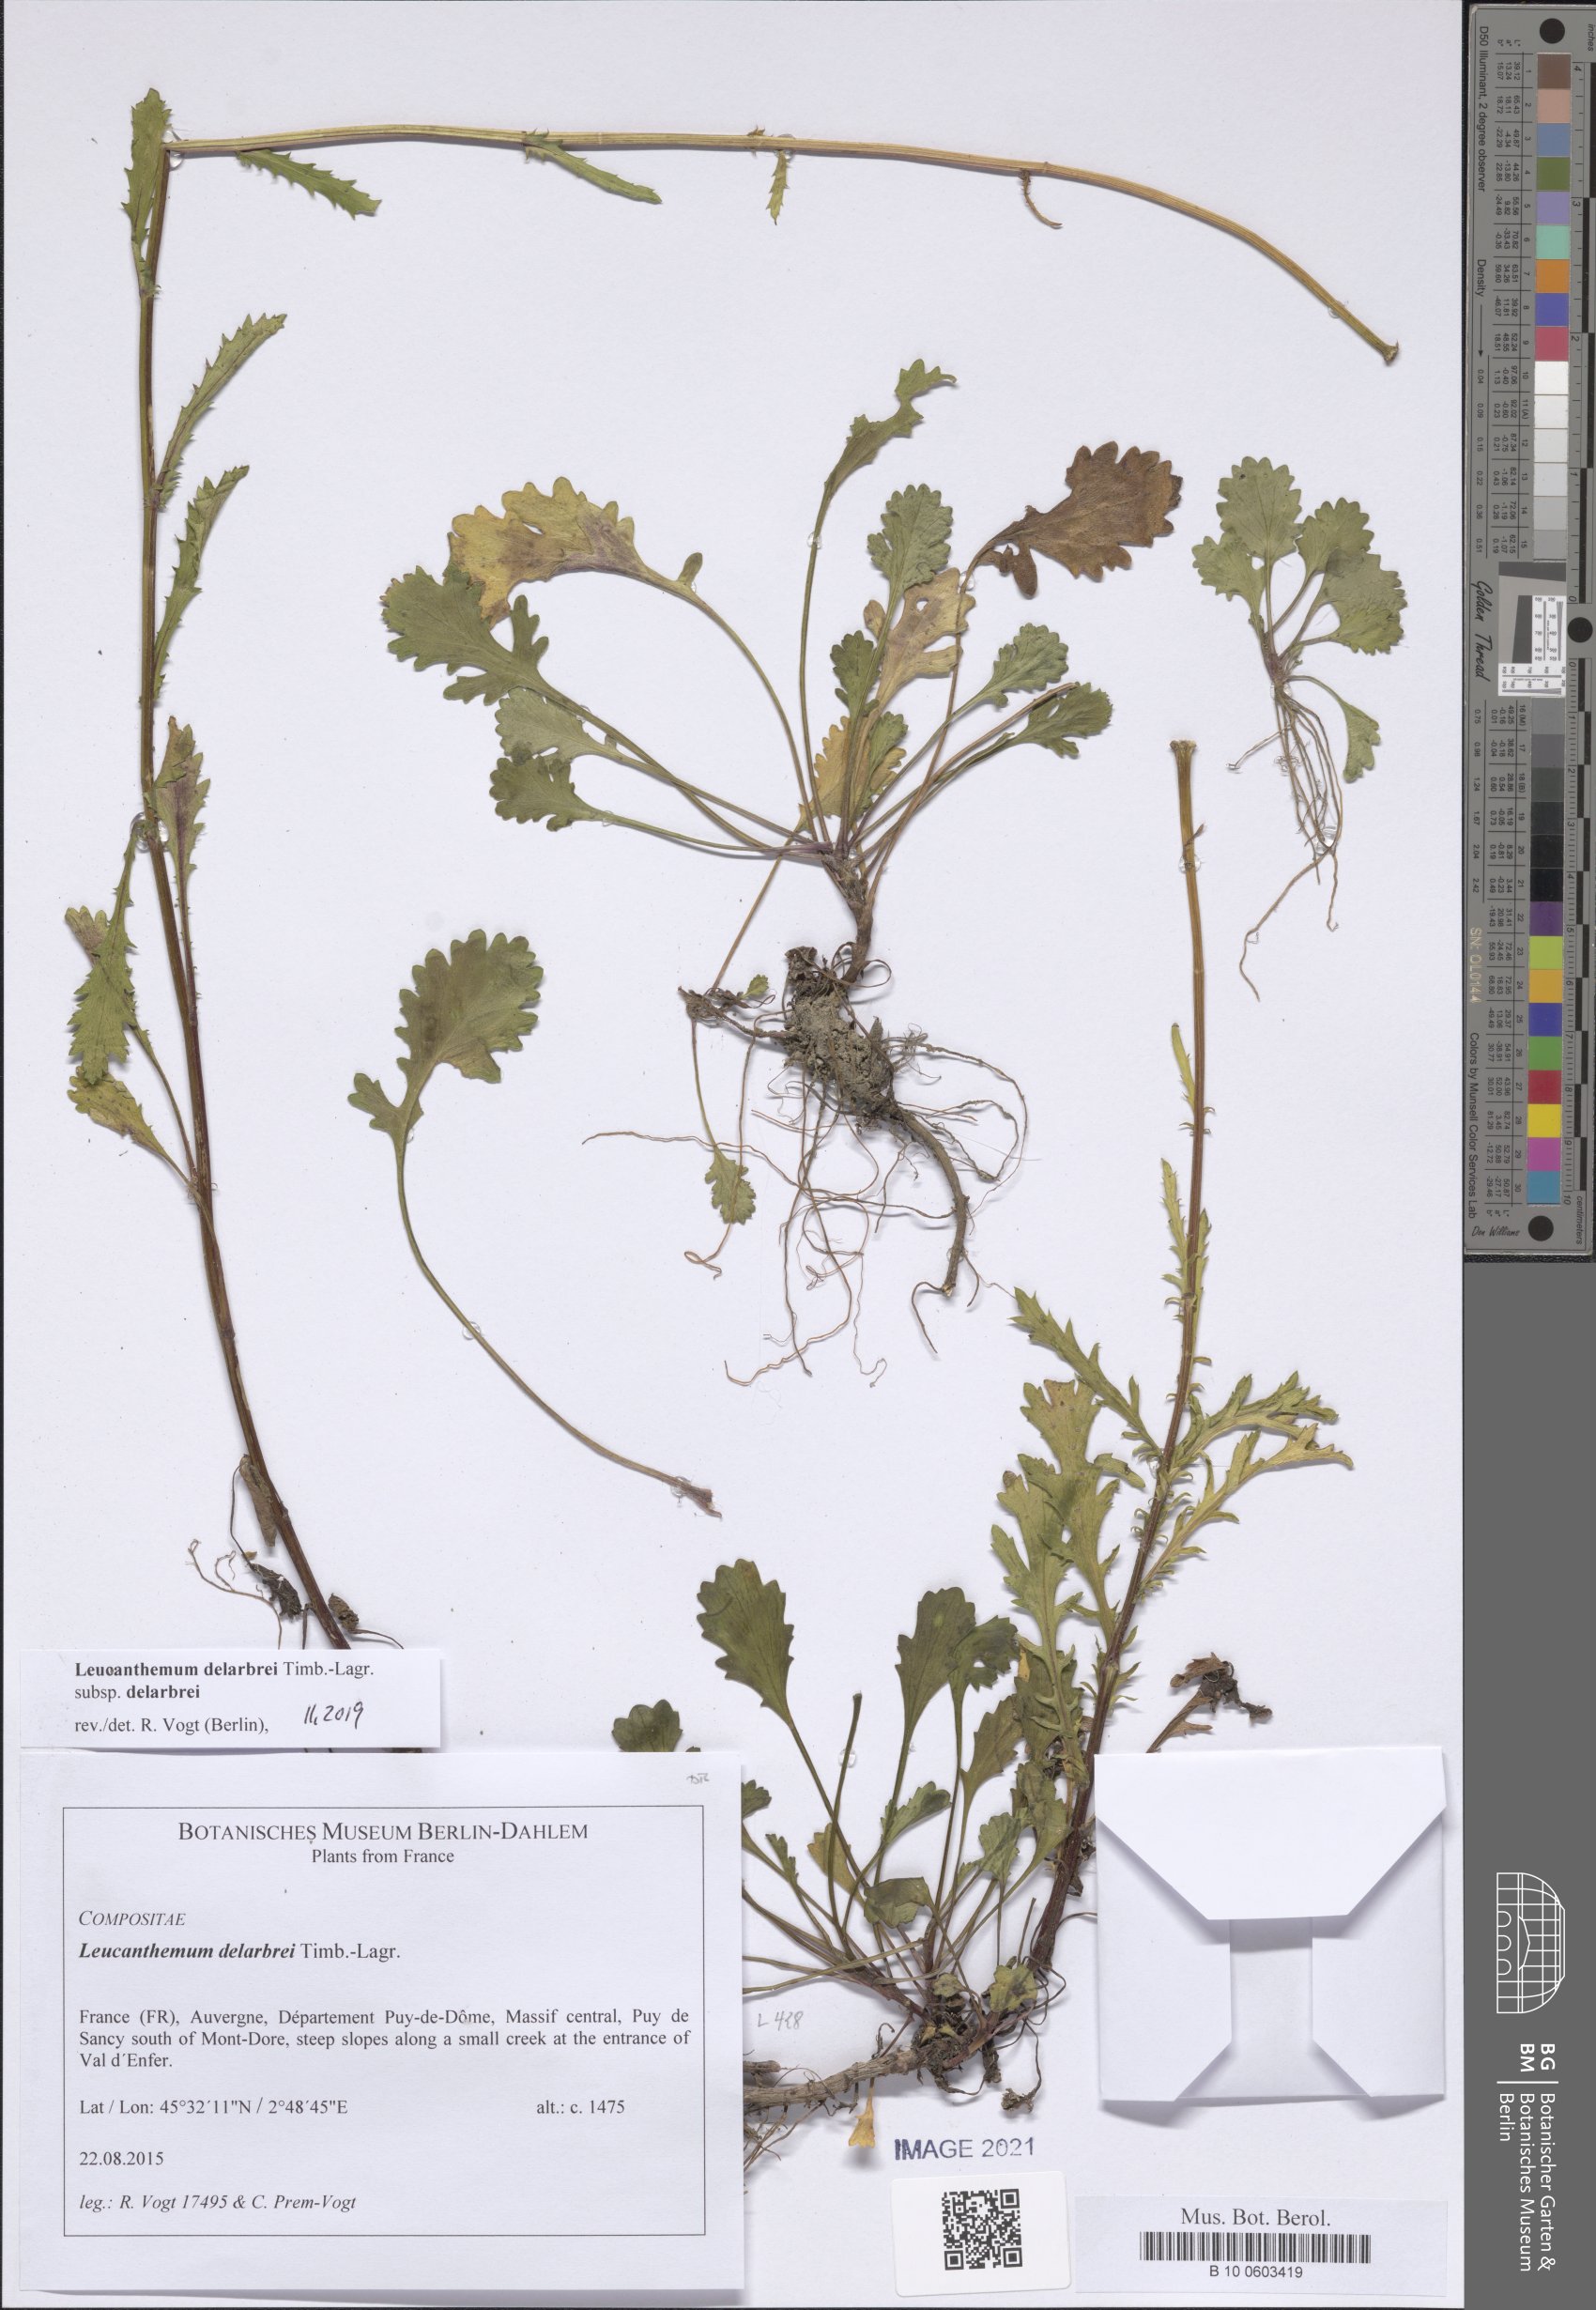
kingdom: Plantae
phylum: Tracheophyta
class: Magnoliopsida
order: Asterales
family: Asteraceae
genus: Leucanthemum
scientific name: Leucanthemum delarbrei
